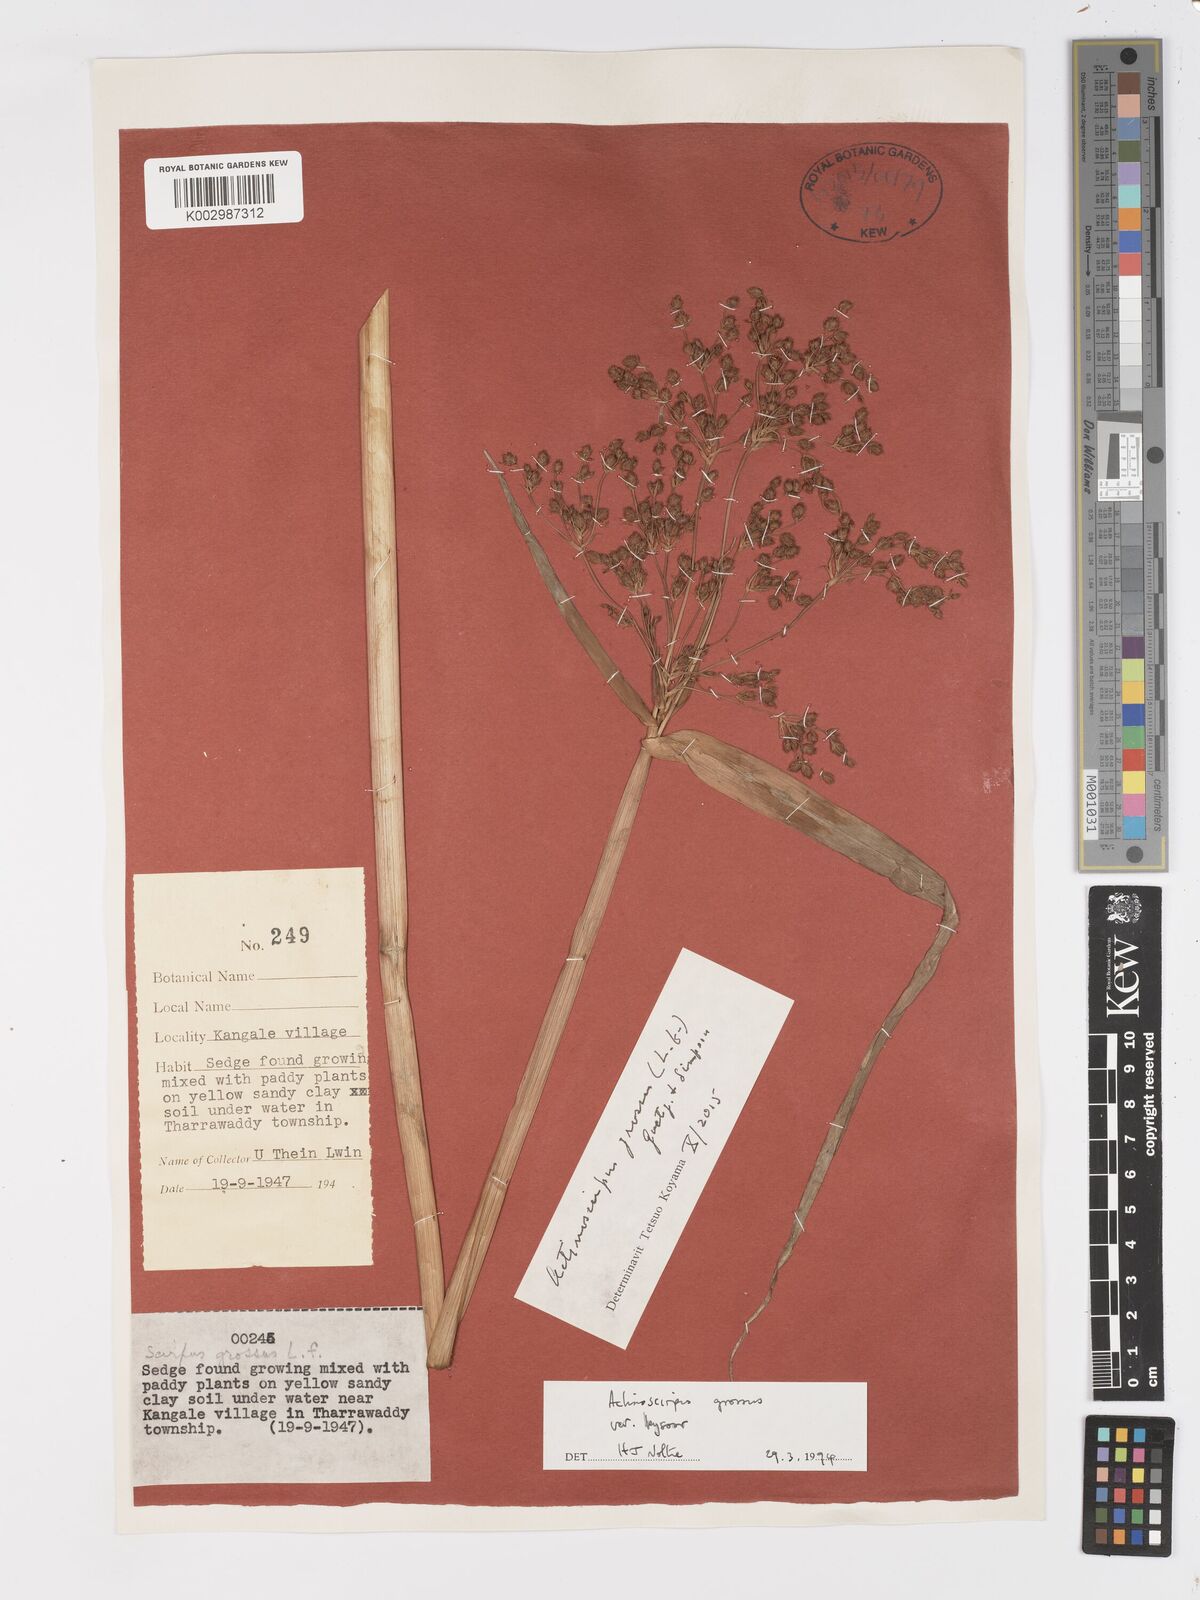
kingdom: Plantae
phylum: Tracheophyta
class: Liliopsida
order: Poales
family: Cyperaceae
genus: Actinoscirpus
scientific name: Actinoscirpus grossus
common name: Giant bur rush
